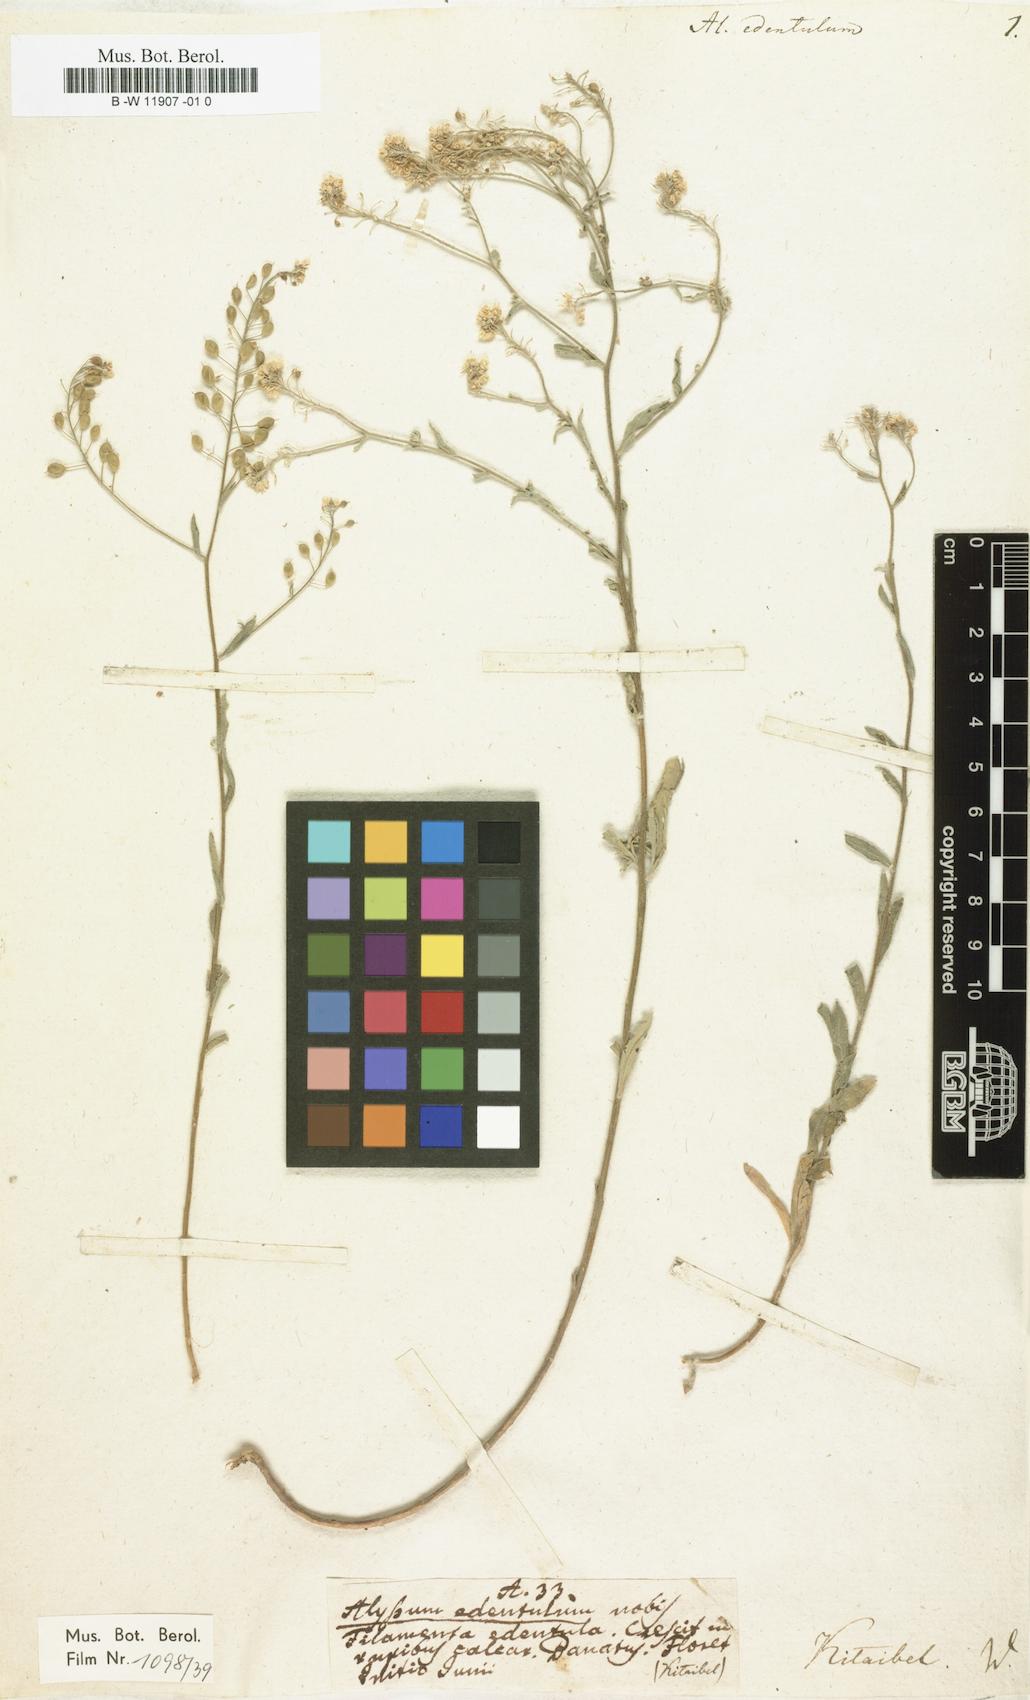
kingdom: Plantae
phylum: Tracheophyta
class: Magnoliopsida
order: Brassicales
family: Brassicaceae
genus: Aurinia
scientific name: Aurinia petraea
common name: Goldentuft
